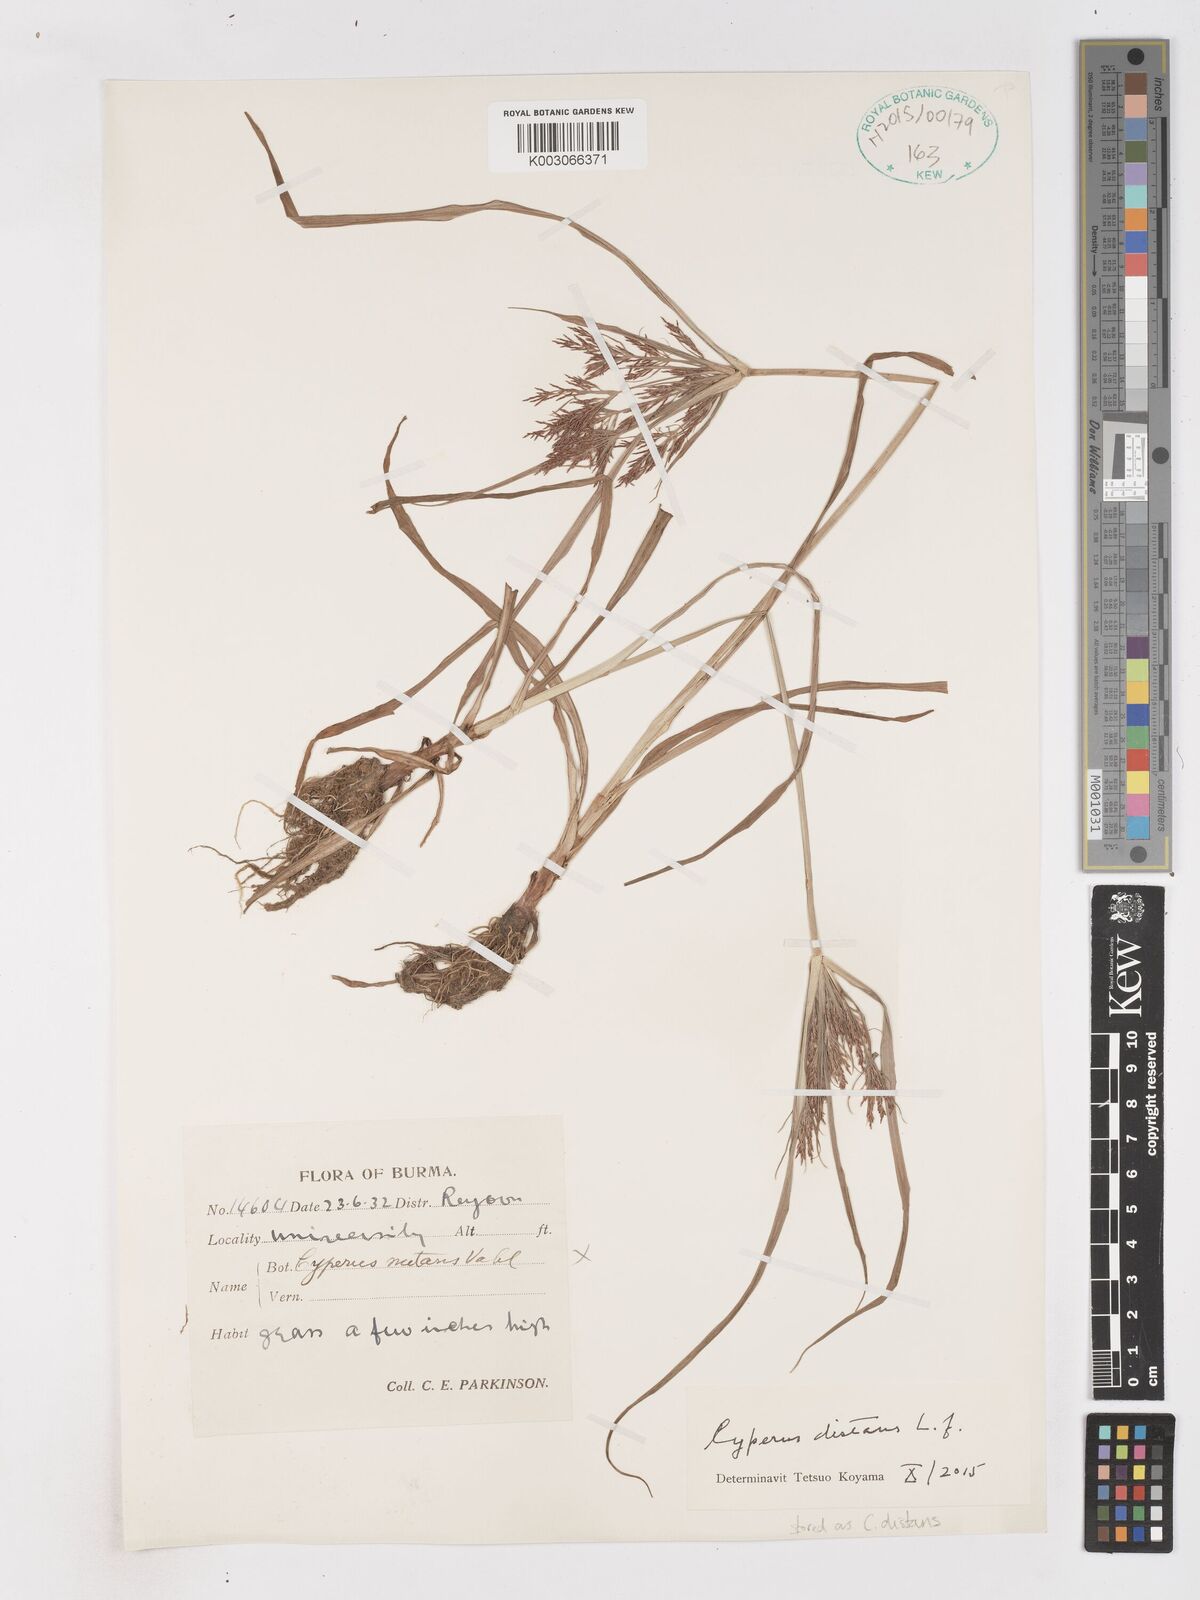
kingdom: Plantae
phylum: Tracheophyta
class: Liliopsida
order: Poales
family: Cyperaceae
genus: Cyperus
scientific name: Cyperus distans
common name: Slender cyperus
